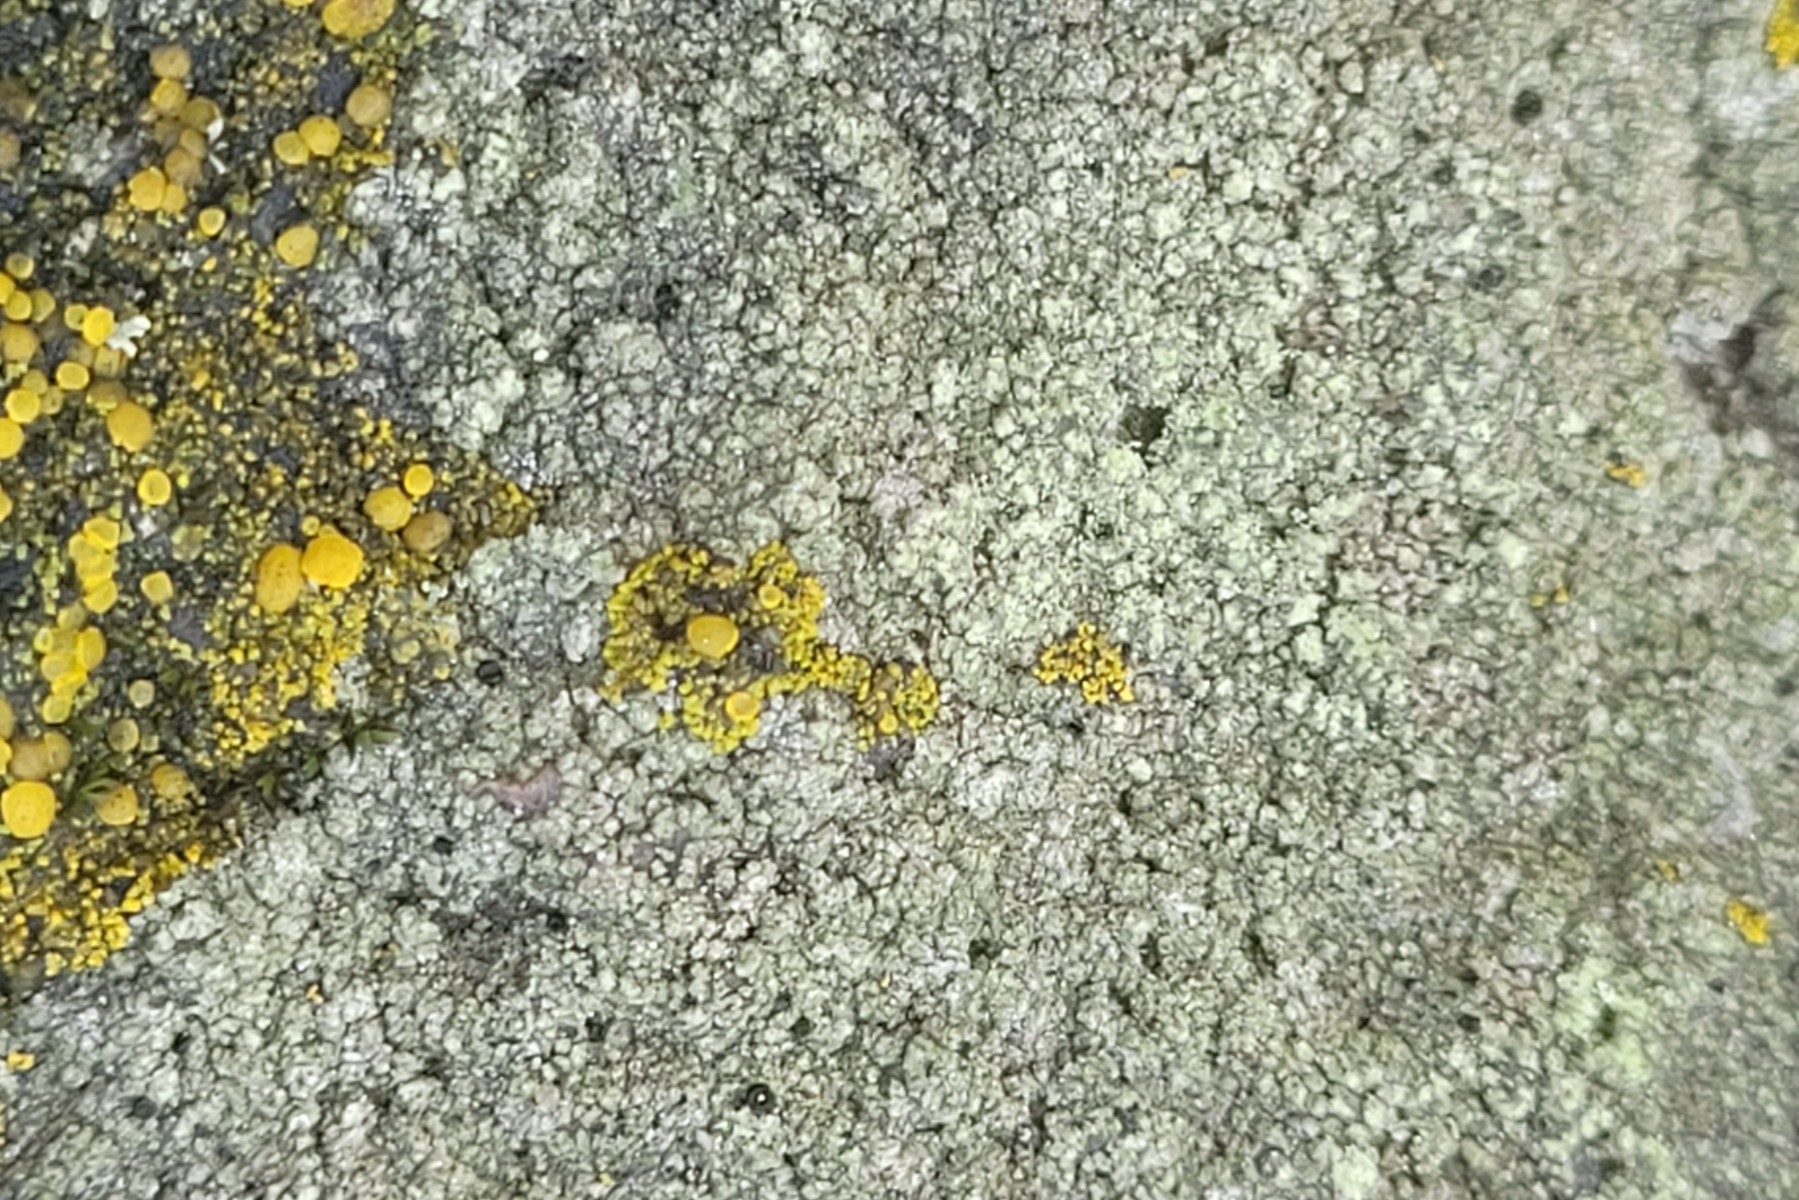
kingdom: Fungi
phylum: Ascomycota
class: Lecanoromycetes
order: Lecanorales
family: Lecanoraceae
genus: Lecidella
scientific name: Lecidella scabra
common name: skurvet skivelav
